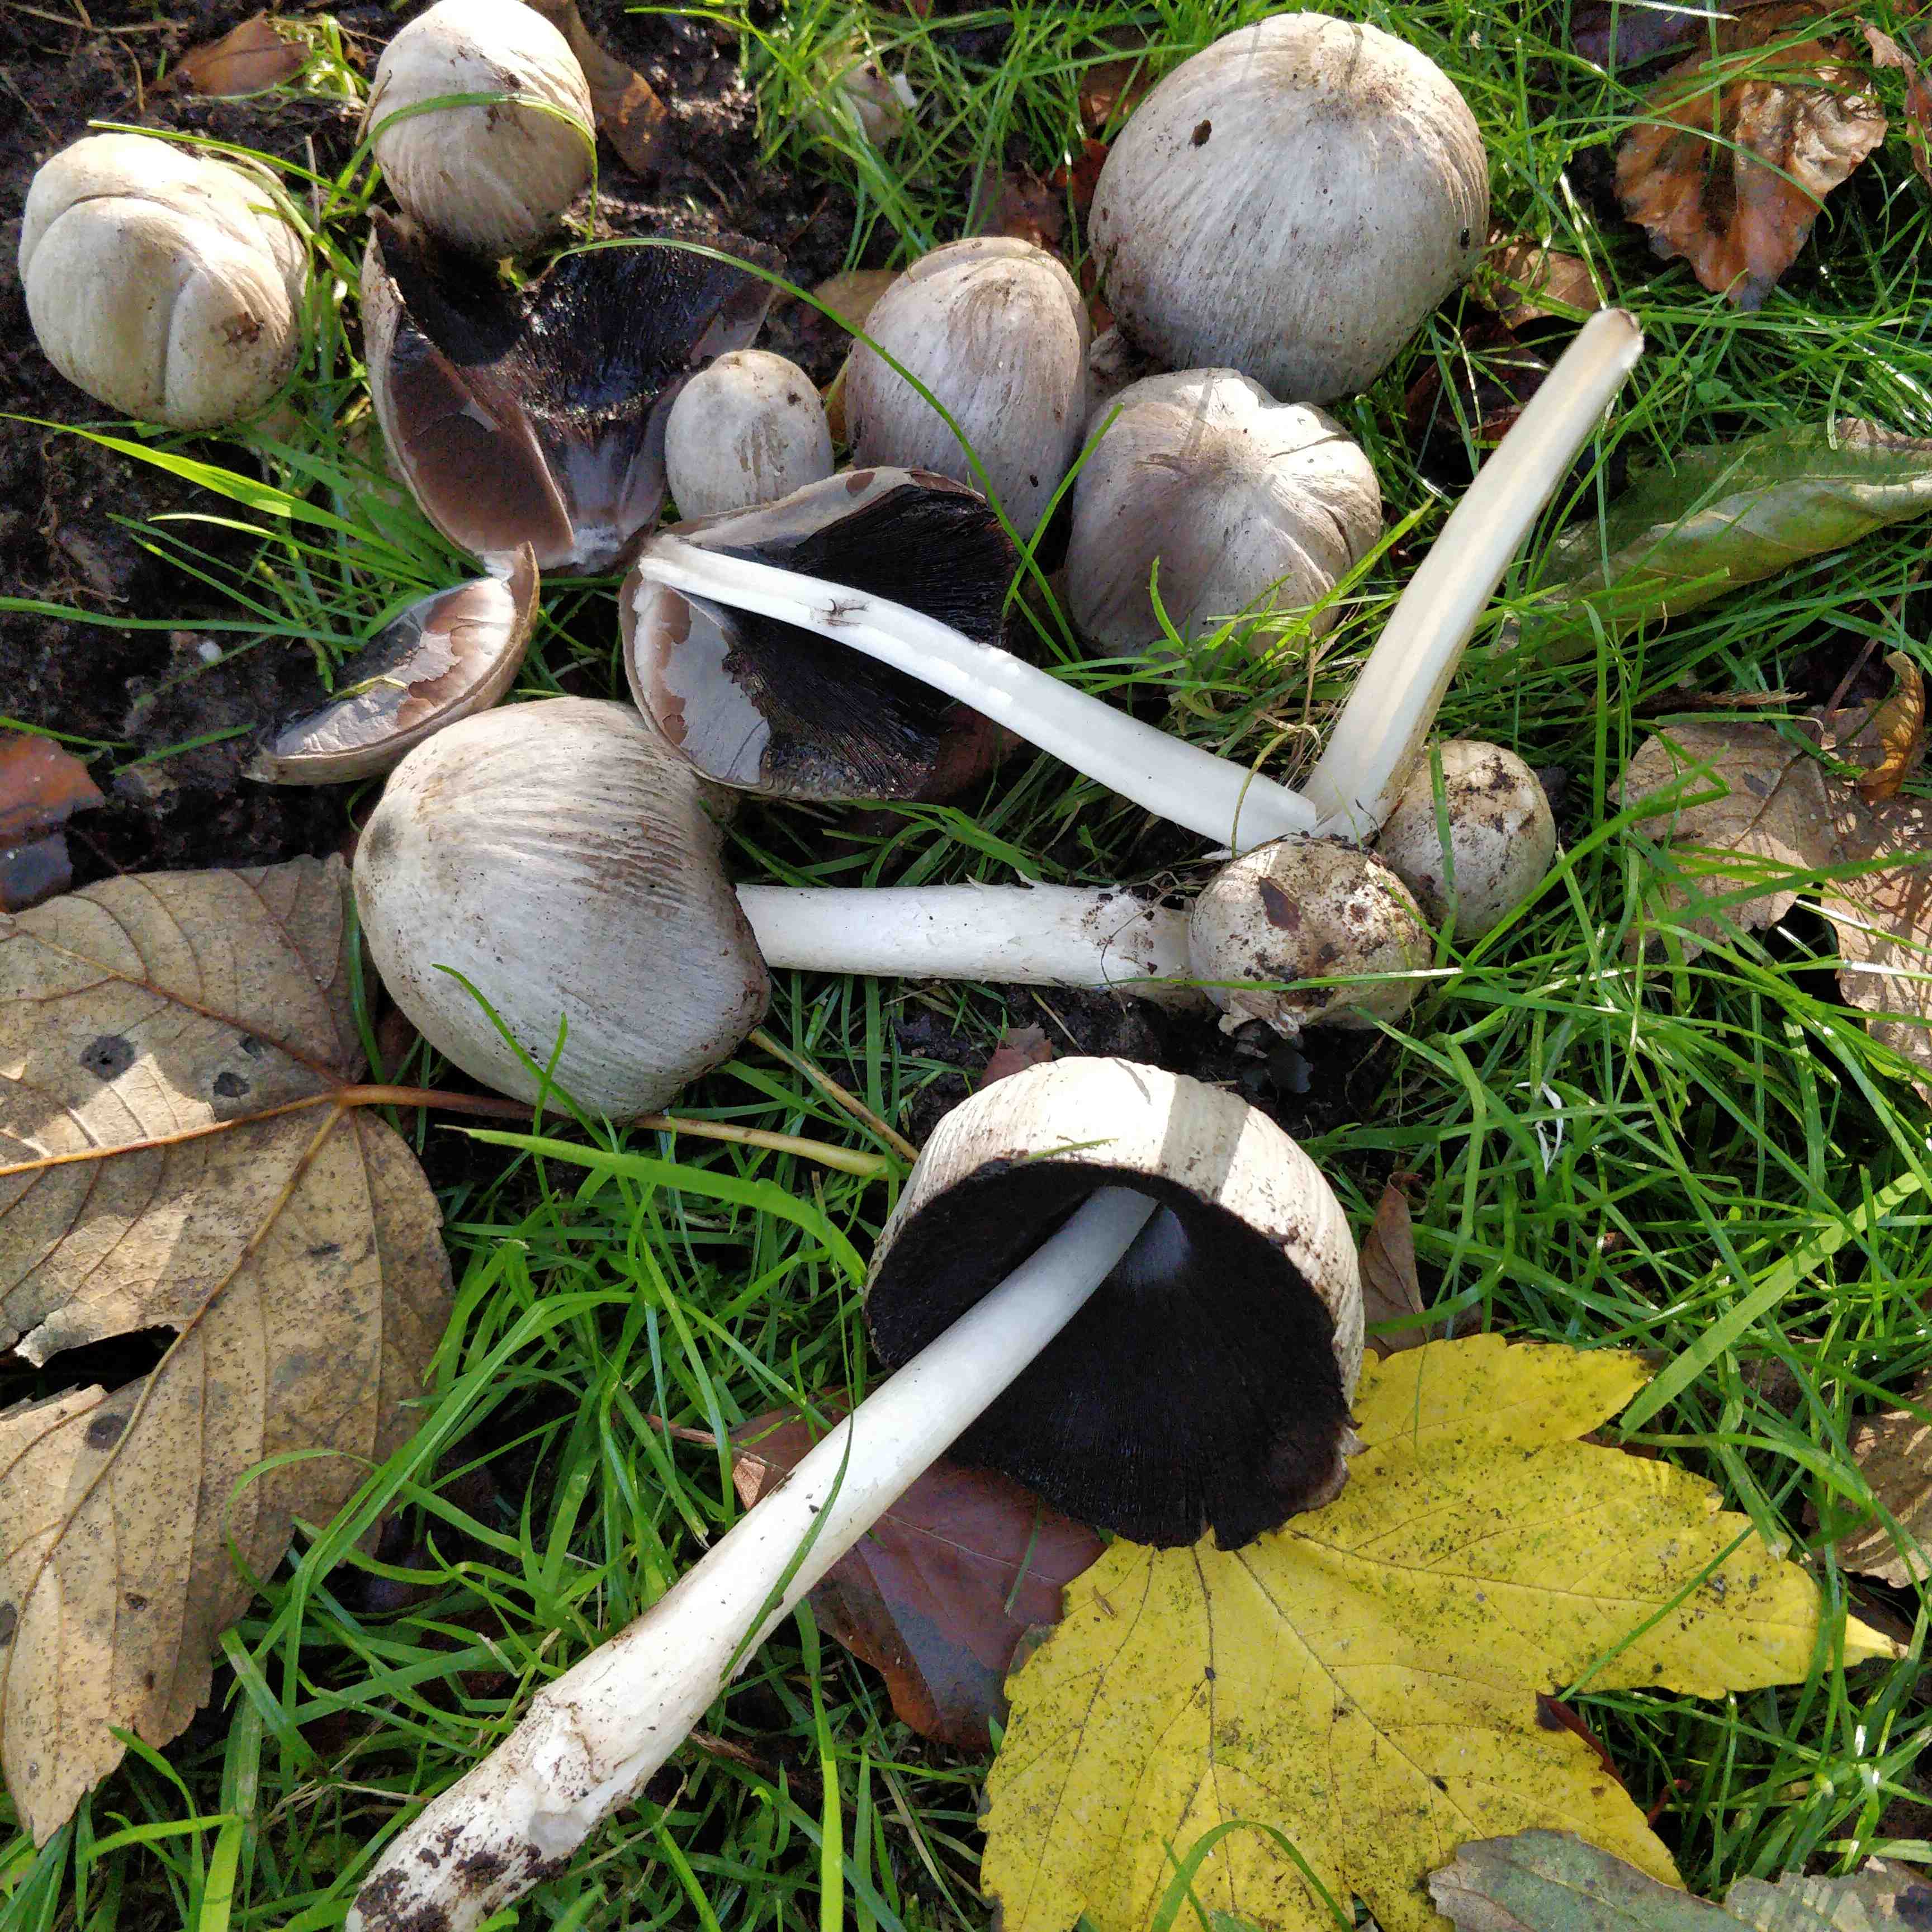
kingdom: Fungi
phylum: Basidiomycota
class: Agaricomycetes
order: Agaricales
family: Psathyrellaceae
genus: Coprinopsis
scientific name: Coprinopsis
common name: blækhat
